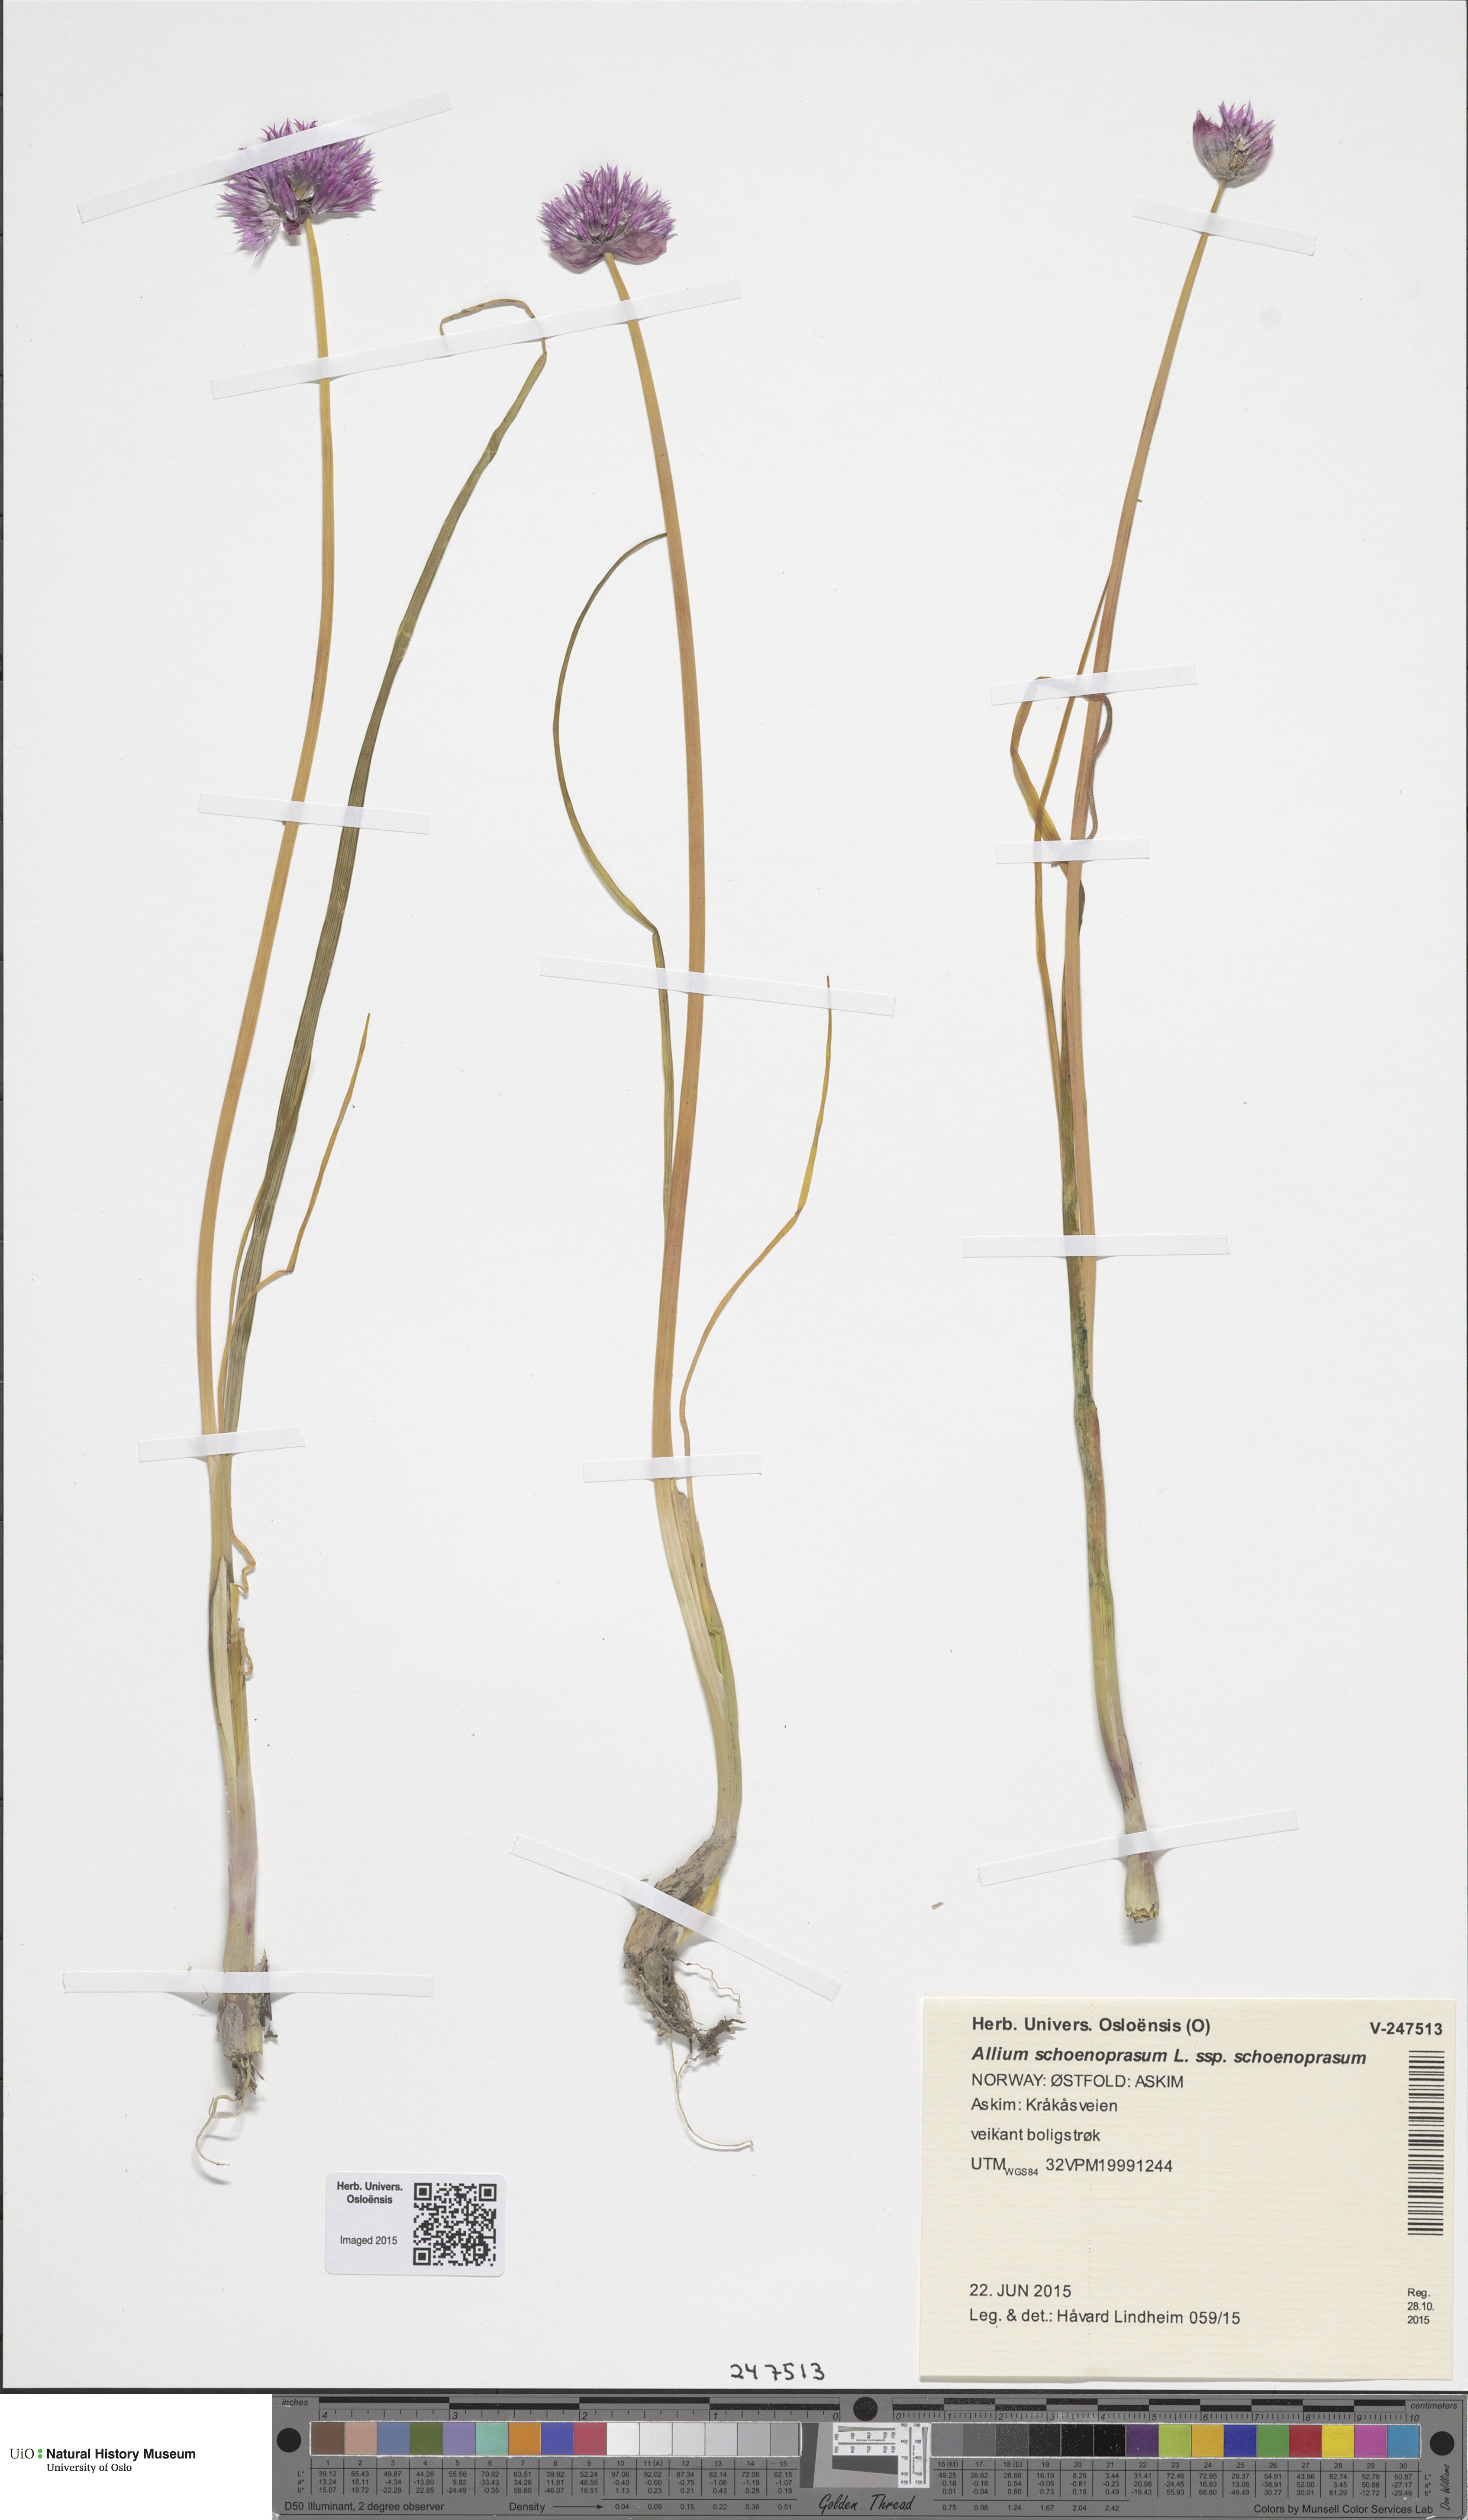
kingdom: Plantae
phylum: Tracheophyta
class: Liliopsida
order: Asparagales
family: Amaryllidaceae
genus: Allium
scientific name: Allium schoenoprasum
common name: Chives
